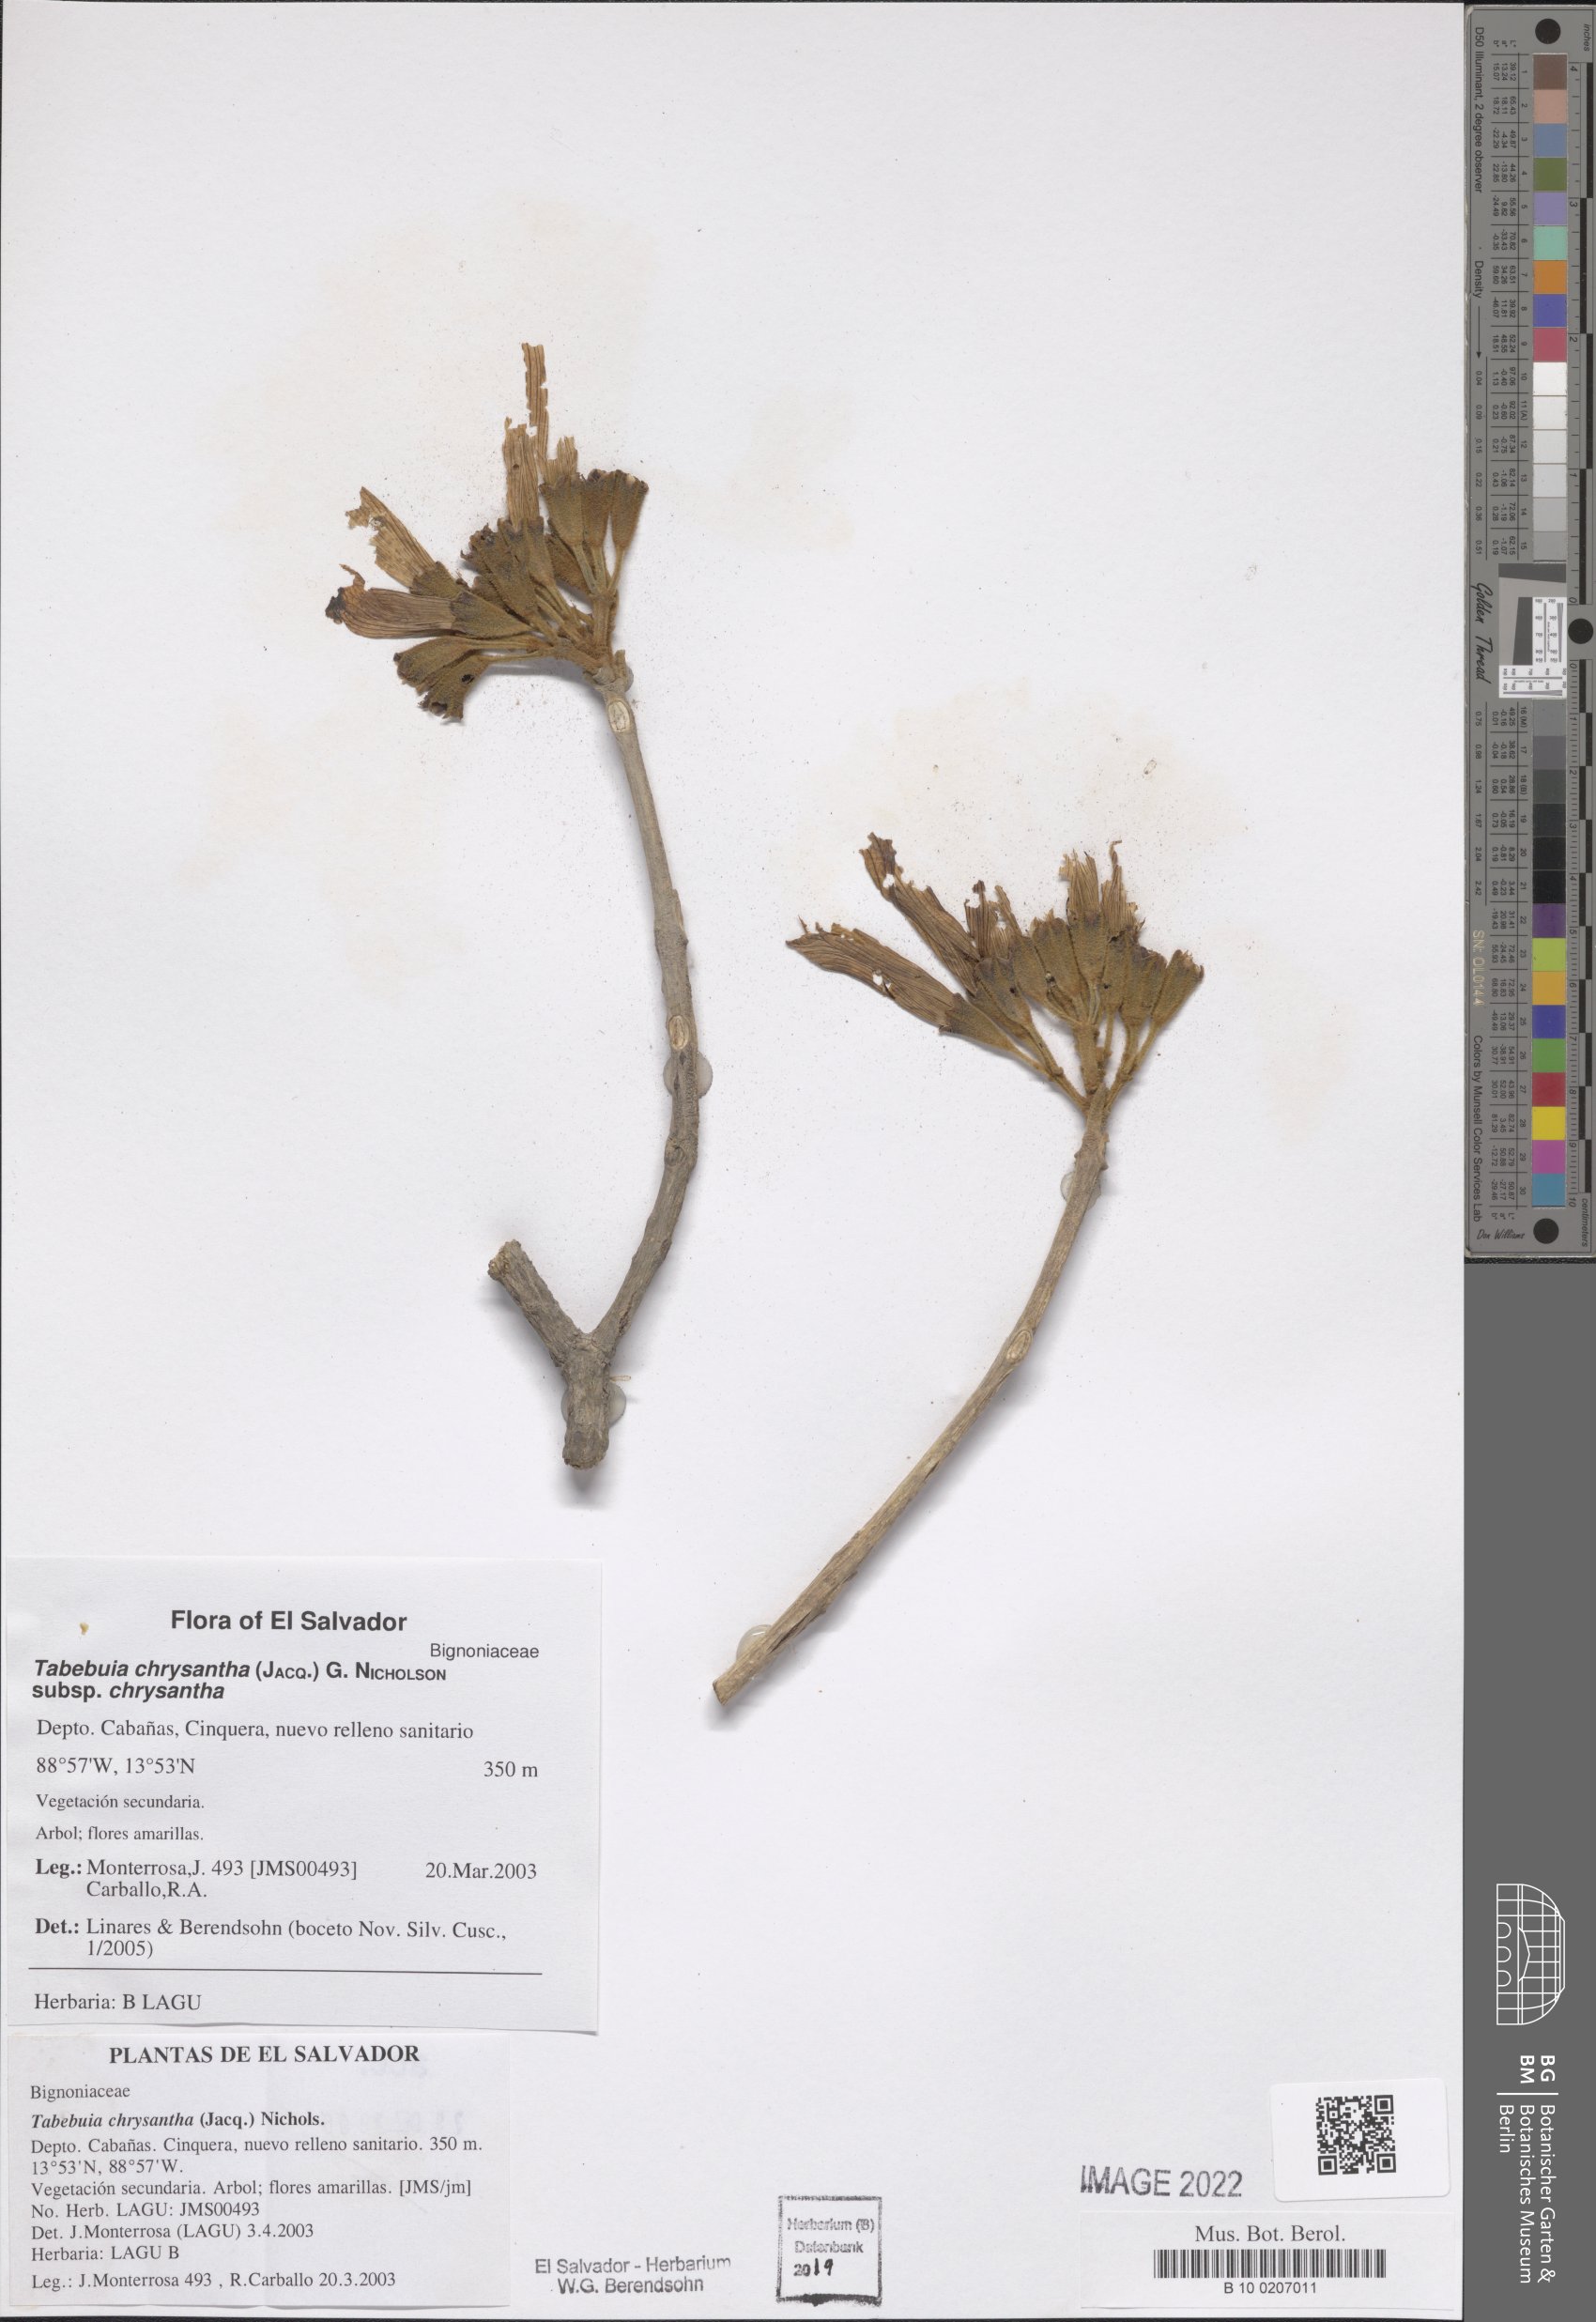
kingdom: Plantae
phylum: Tracheophyta
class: Magnoliopsida
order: Lamiales
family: Bignoniaceae
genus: Handroanthus
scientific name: Handroanthus chrysanthus
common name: Trumpet trees
